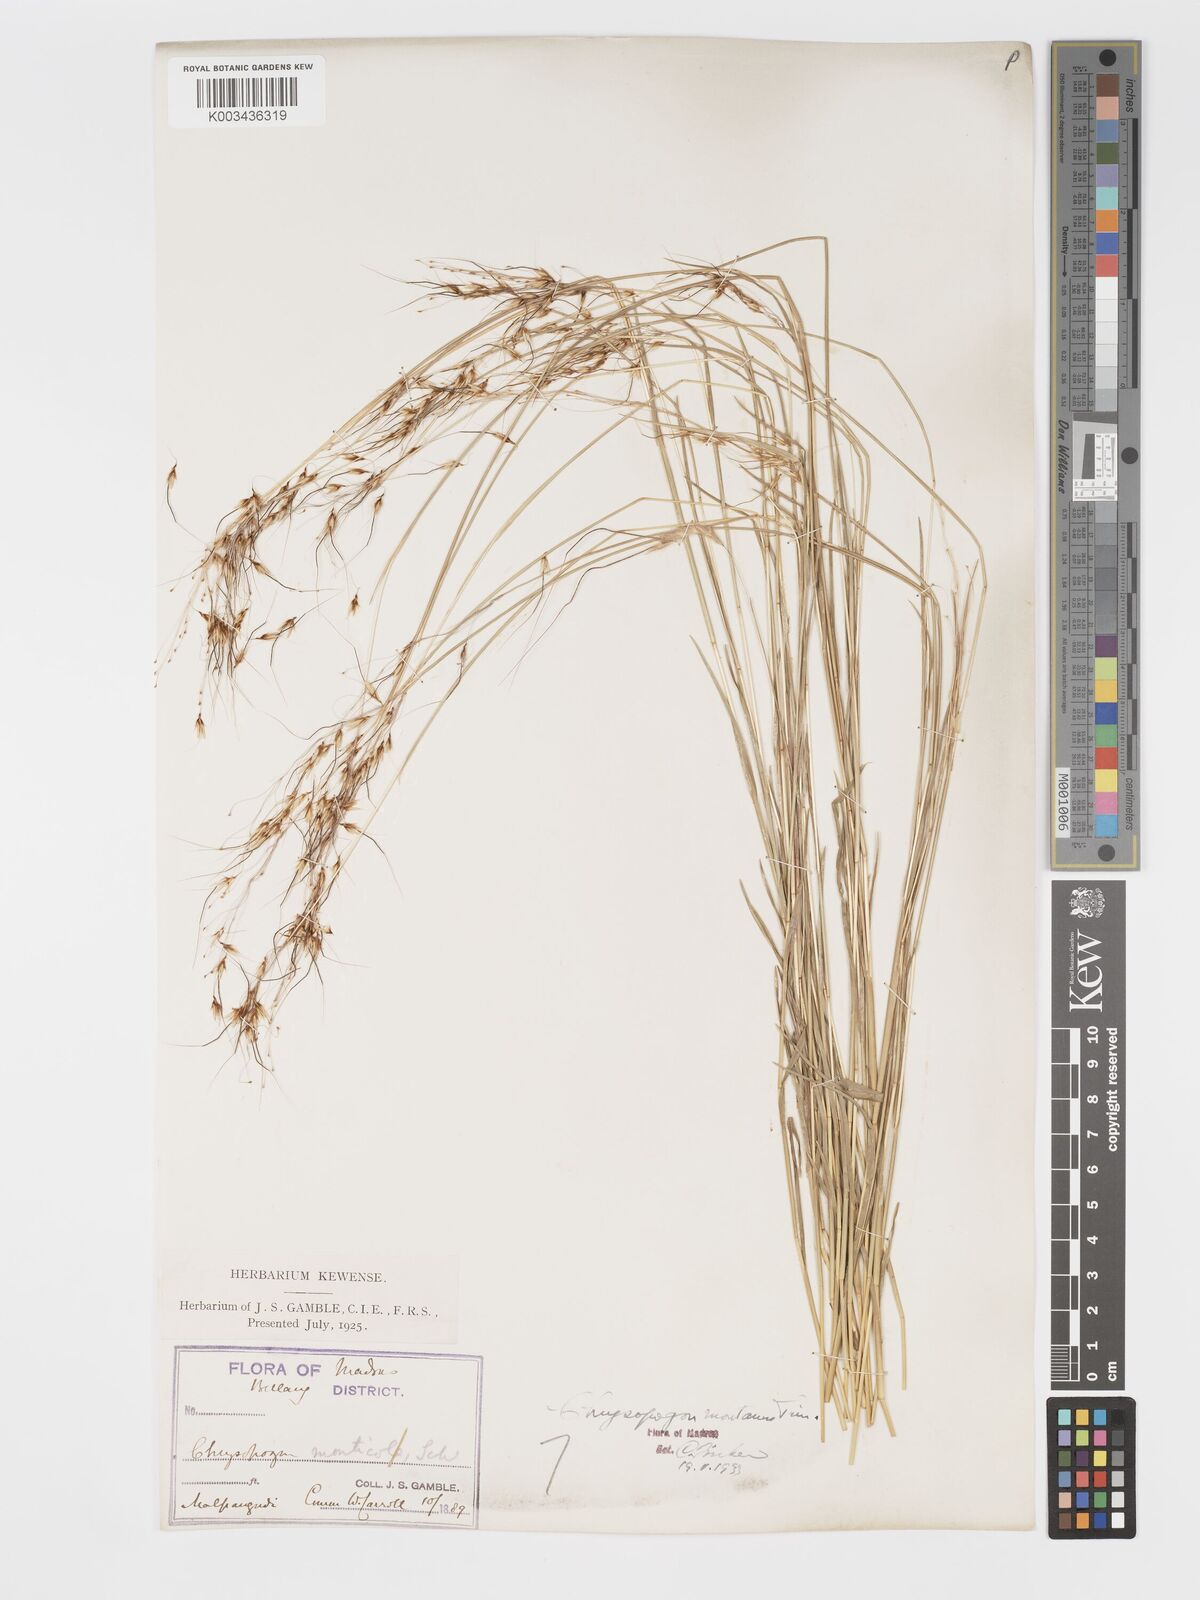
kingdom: Plantae
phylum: Tracheophyta
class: Liliopsida
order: Poales
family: Poaceae
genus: Chrysopogon
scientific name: Chrysopogon fulvus
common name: Red false beardgrass
